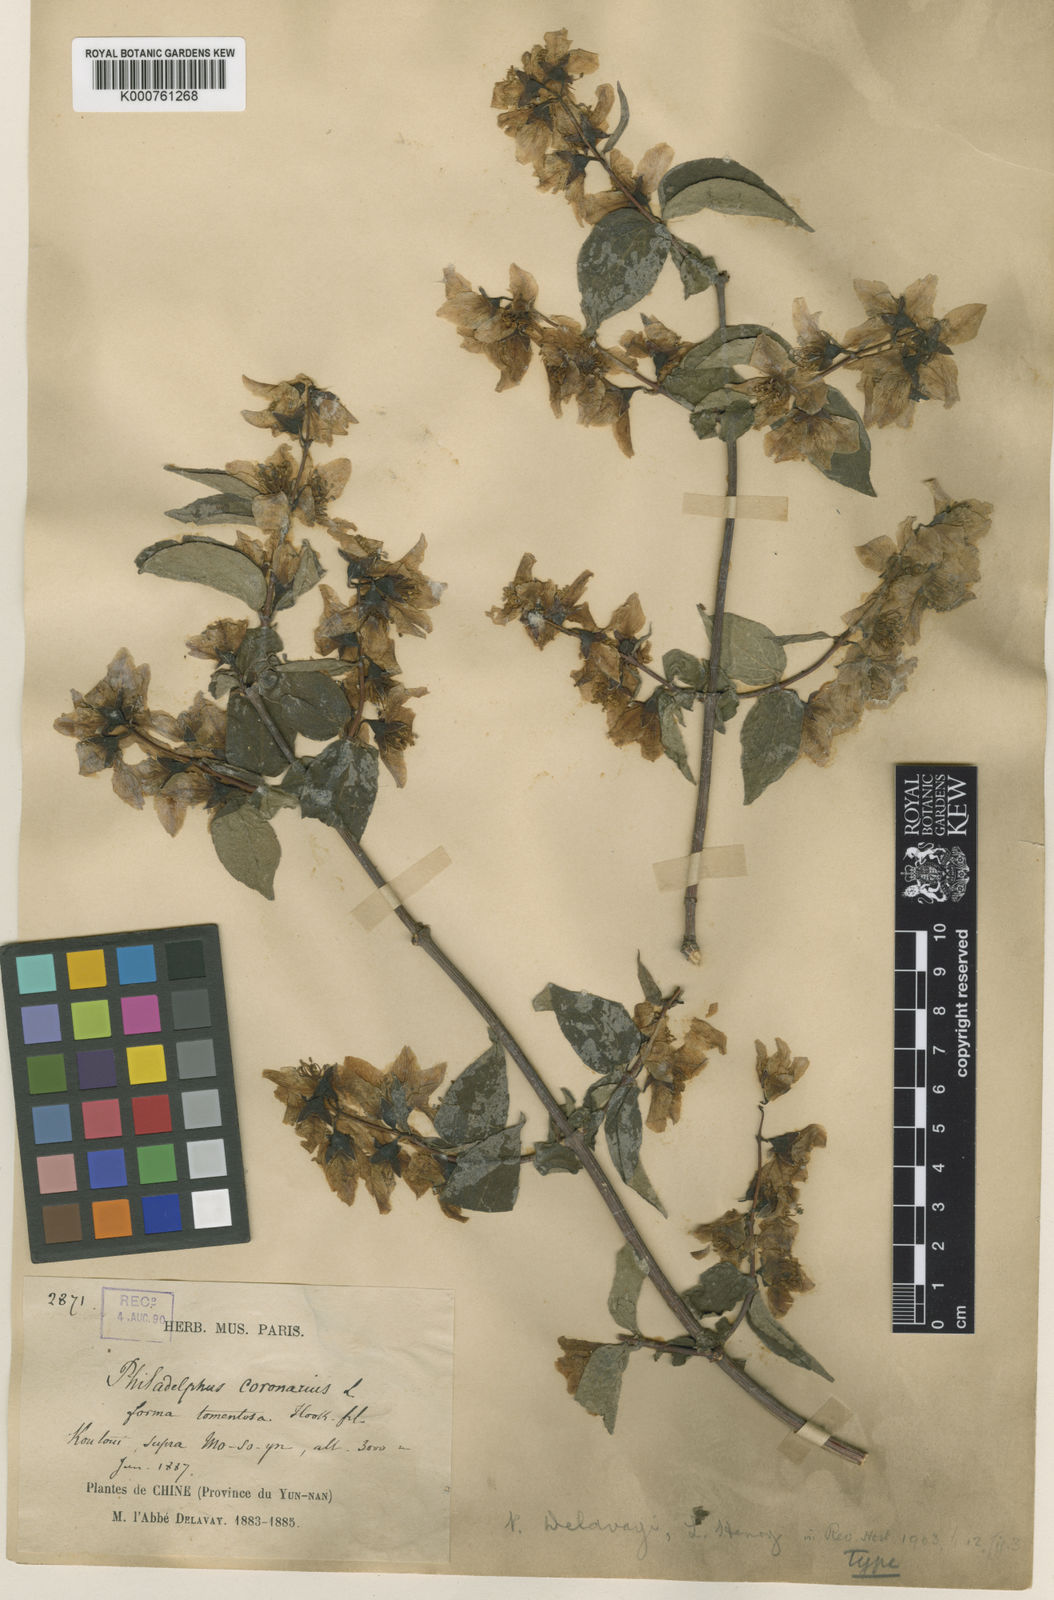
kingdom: Plantae
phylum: Tracheophyta
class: Magnoliopsida
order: Cornales
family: Hydrangeaceae
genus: Philadelphus
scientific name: Philadelphus delavayi
